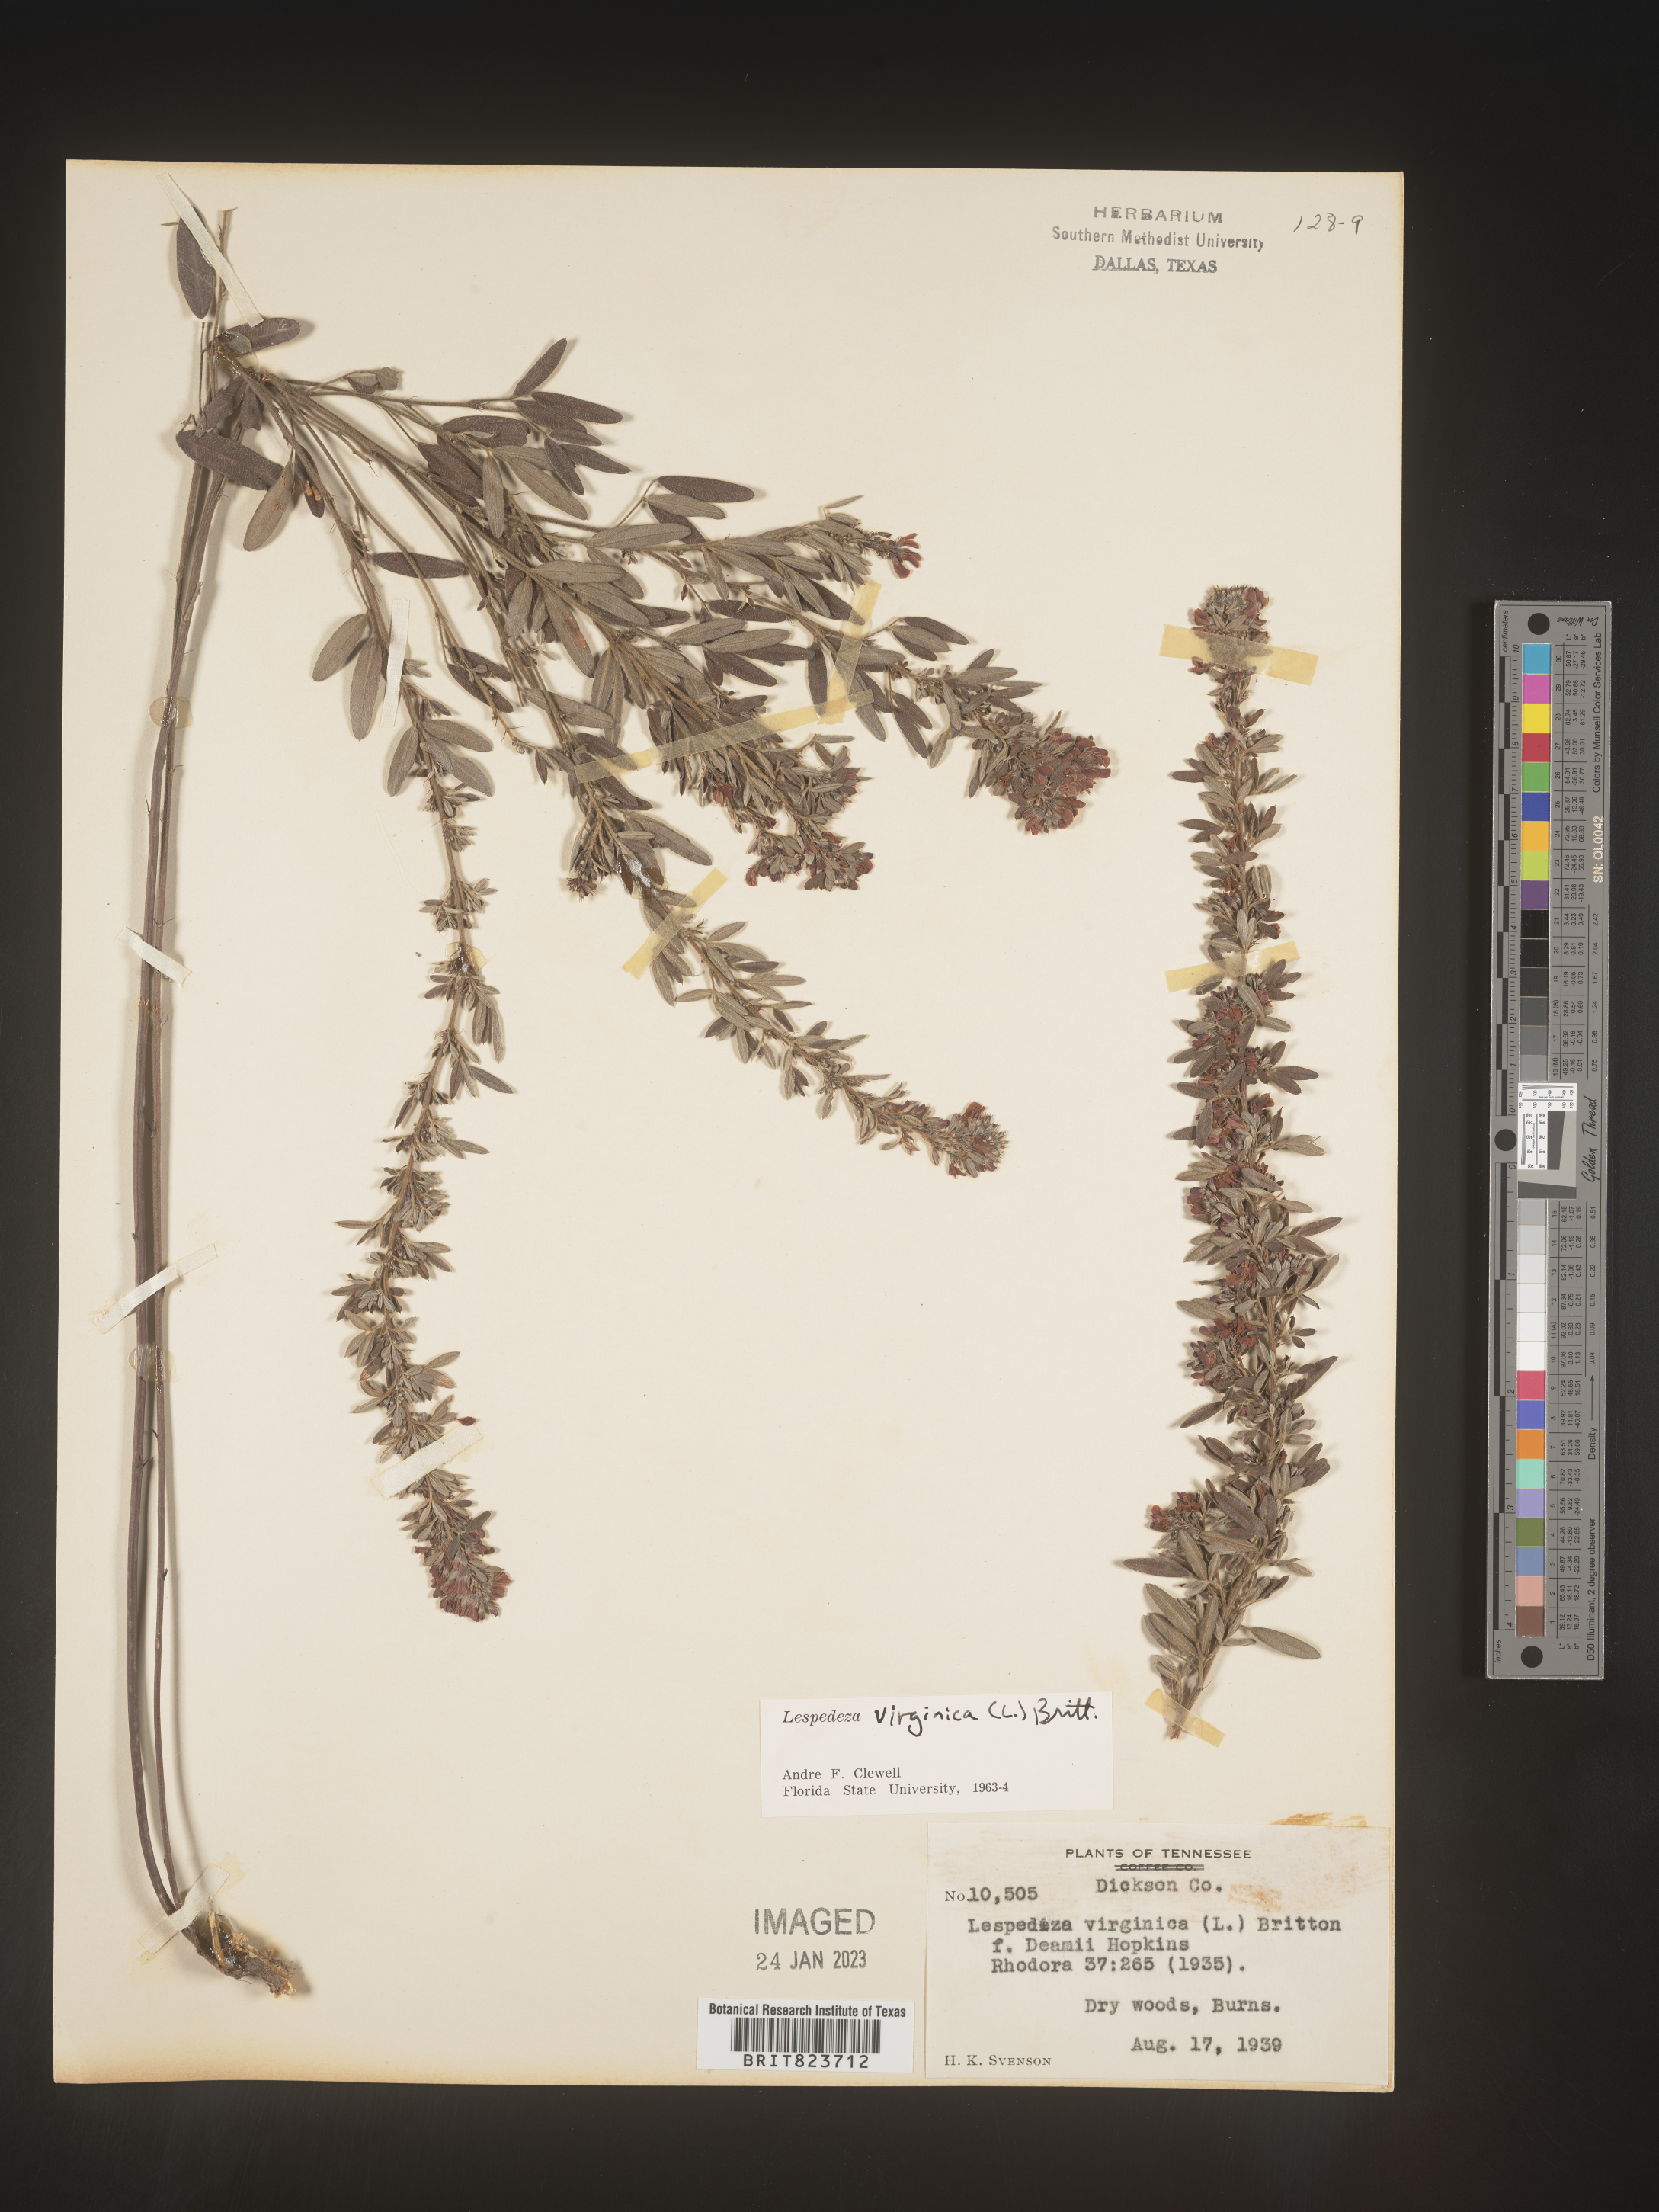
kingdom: Plantae
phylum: Tracheophyta
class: Magnoliopsida
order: Fabales
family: Fabaceae
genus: Lespedeza
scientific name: Lespedeza virginica
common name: Slender bush-clover
